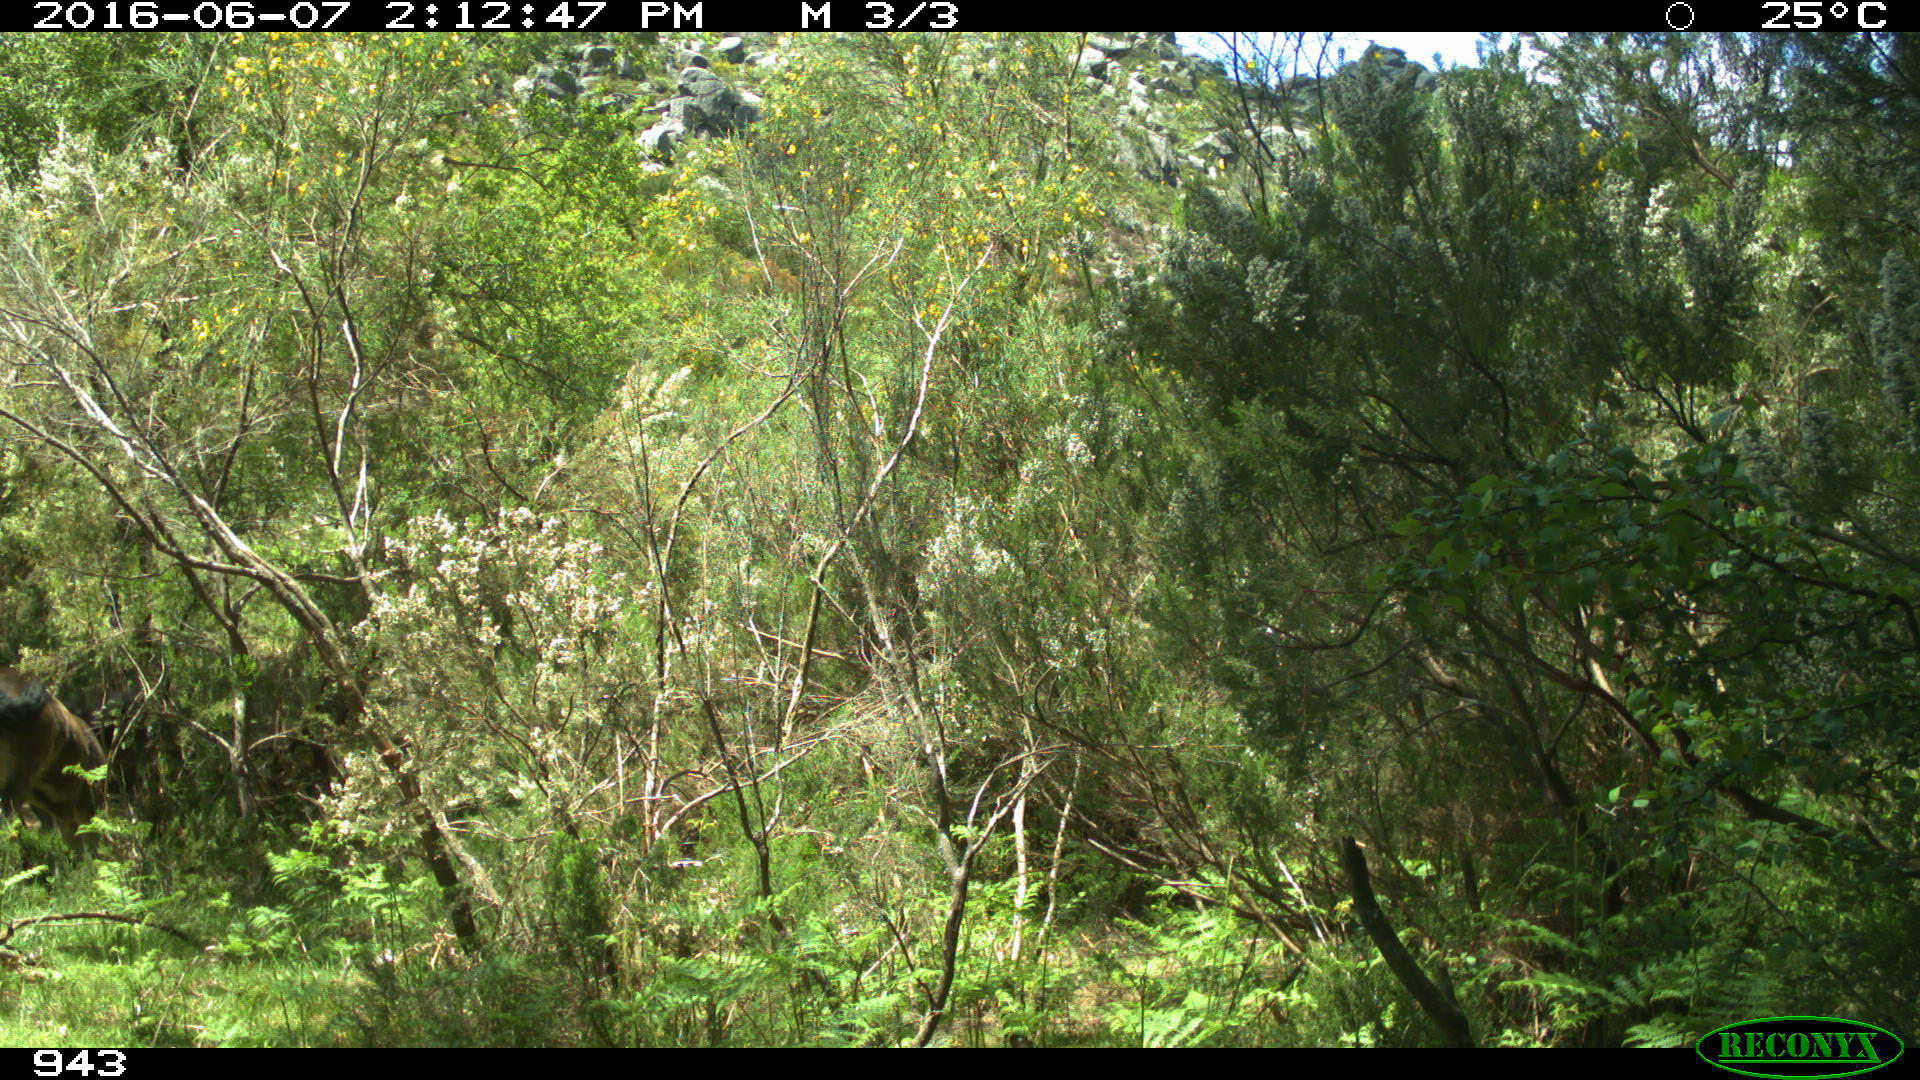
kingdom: Animalia
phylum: Chordata
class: Mammalia
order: Perissodactyla
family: Equidae
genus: Equus
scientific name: Equus caballus
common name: Horse
